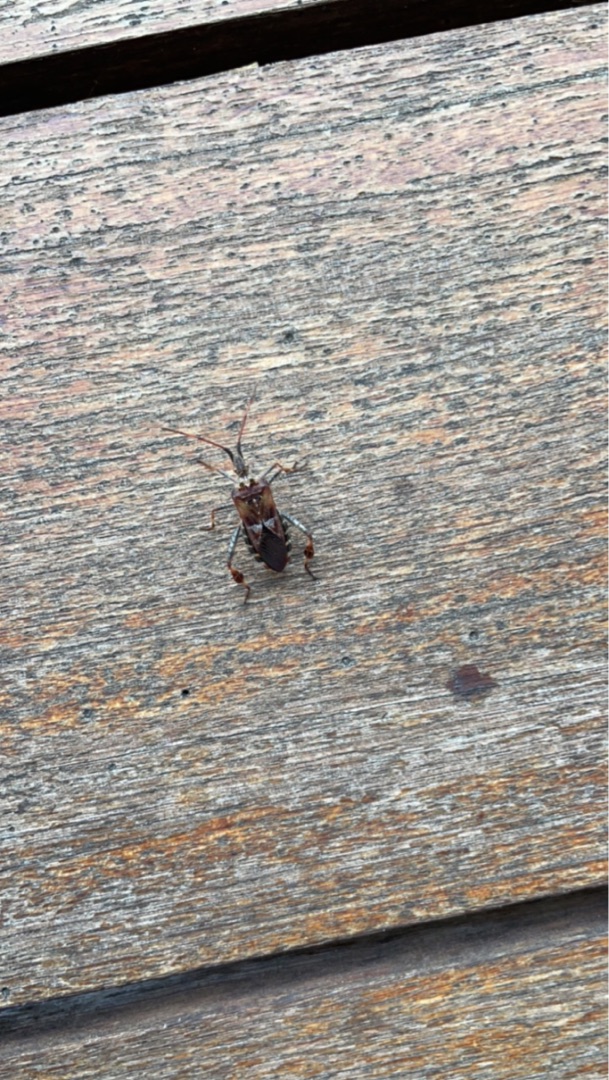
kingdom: Animalia
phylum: Arthropoda
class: Insecta
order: Hemiptera
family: Coreidae
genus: Leptoglossus
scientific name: Leptoglossus occidentalis
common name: Amerikansk fyrretæge
